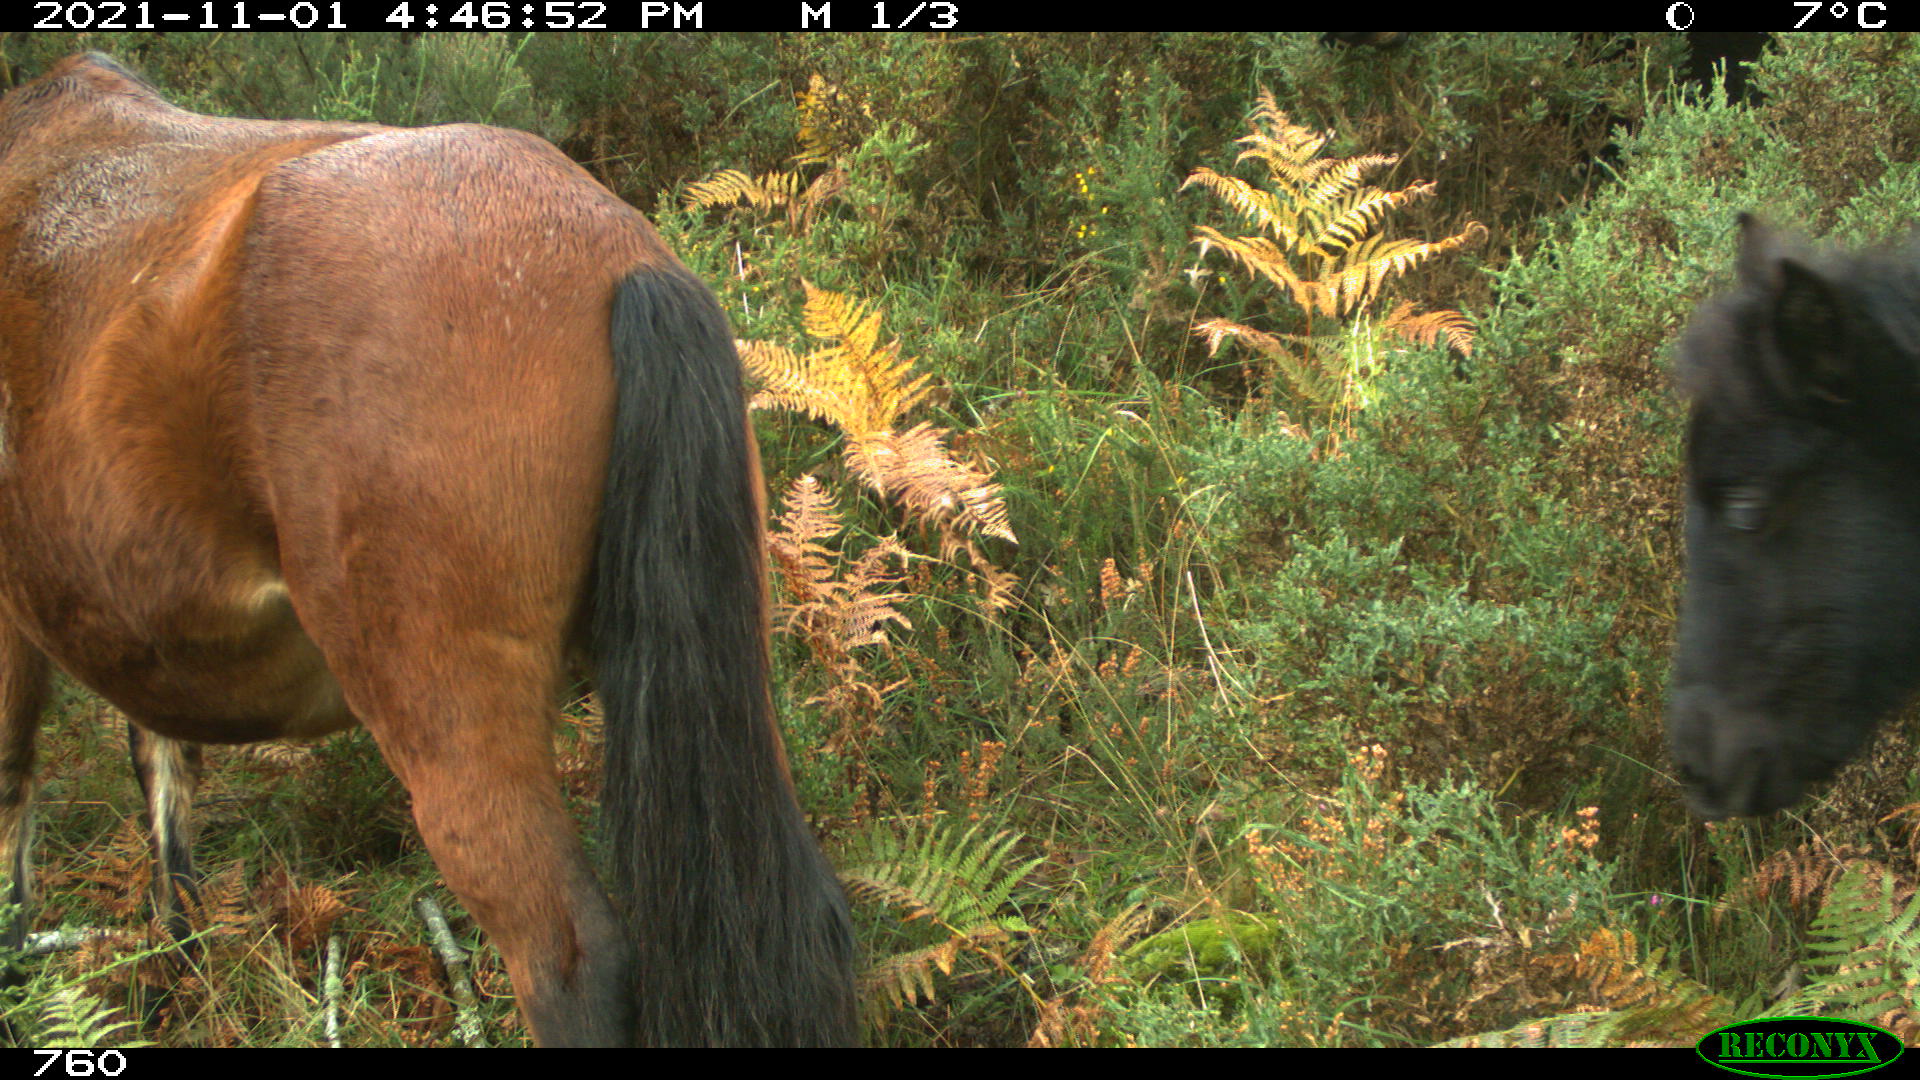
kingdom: Animalia
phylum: Chordata
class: Mammalia
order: Perissodactyla
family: Equidae
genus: Equus
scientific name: Equus caballus
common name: Horse
